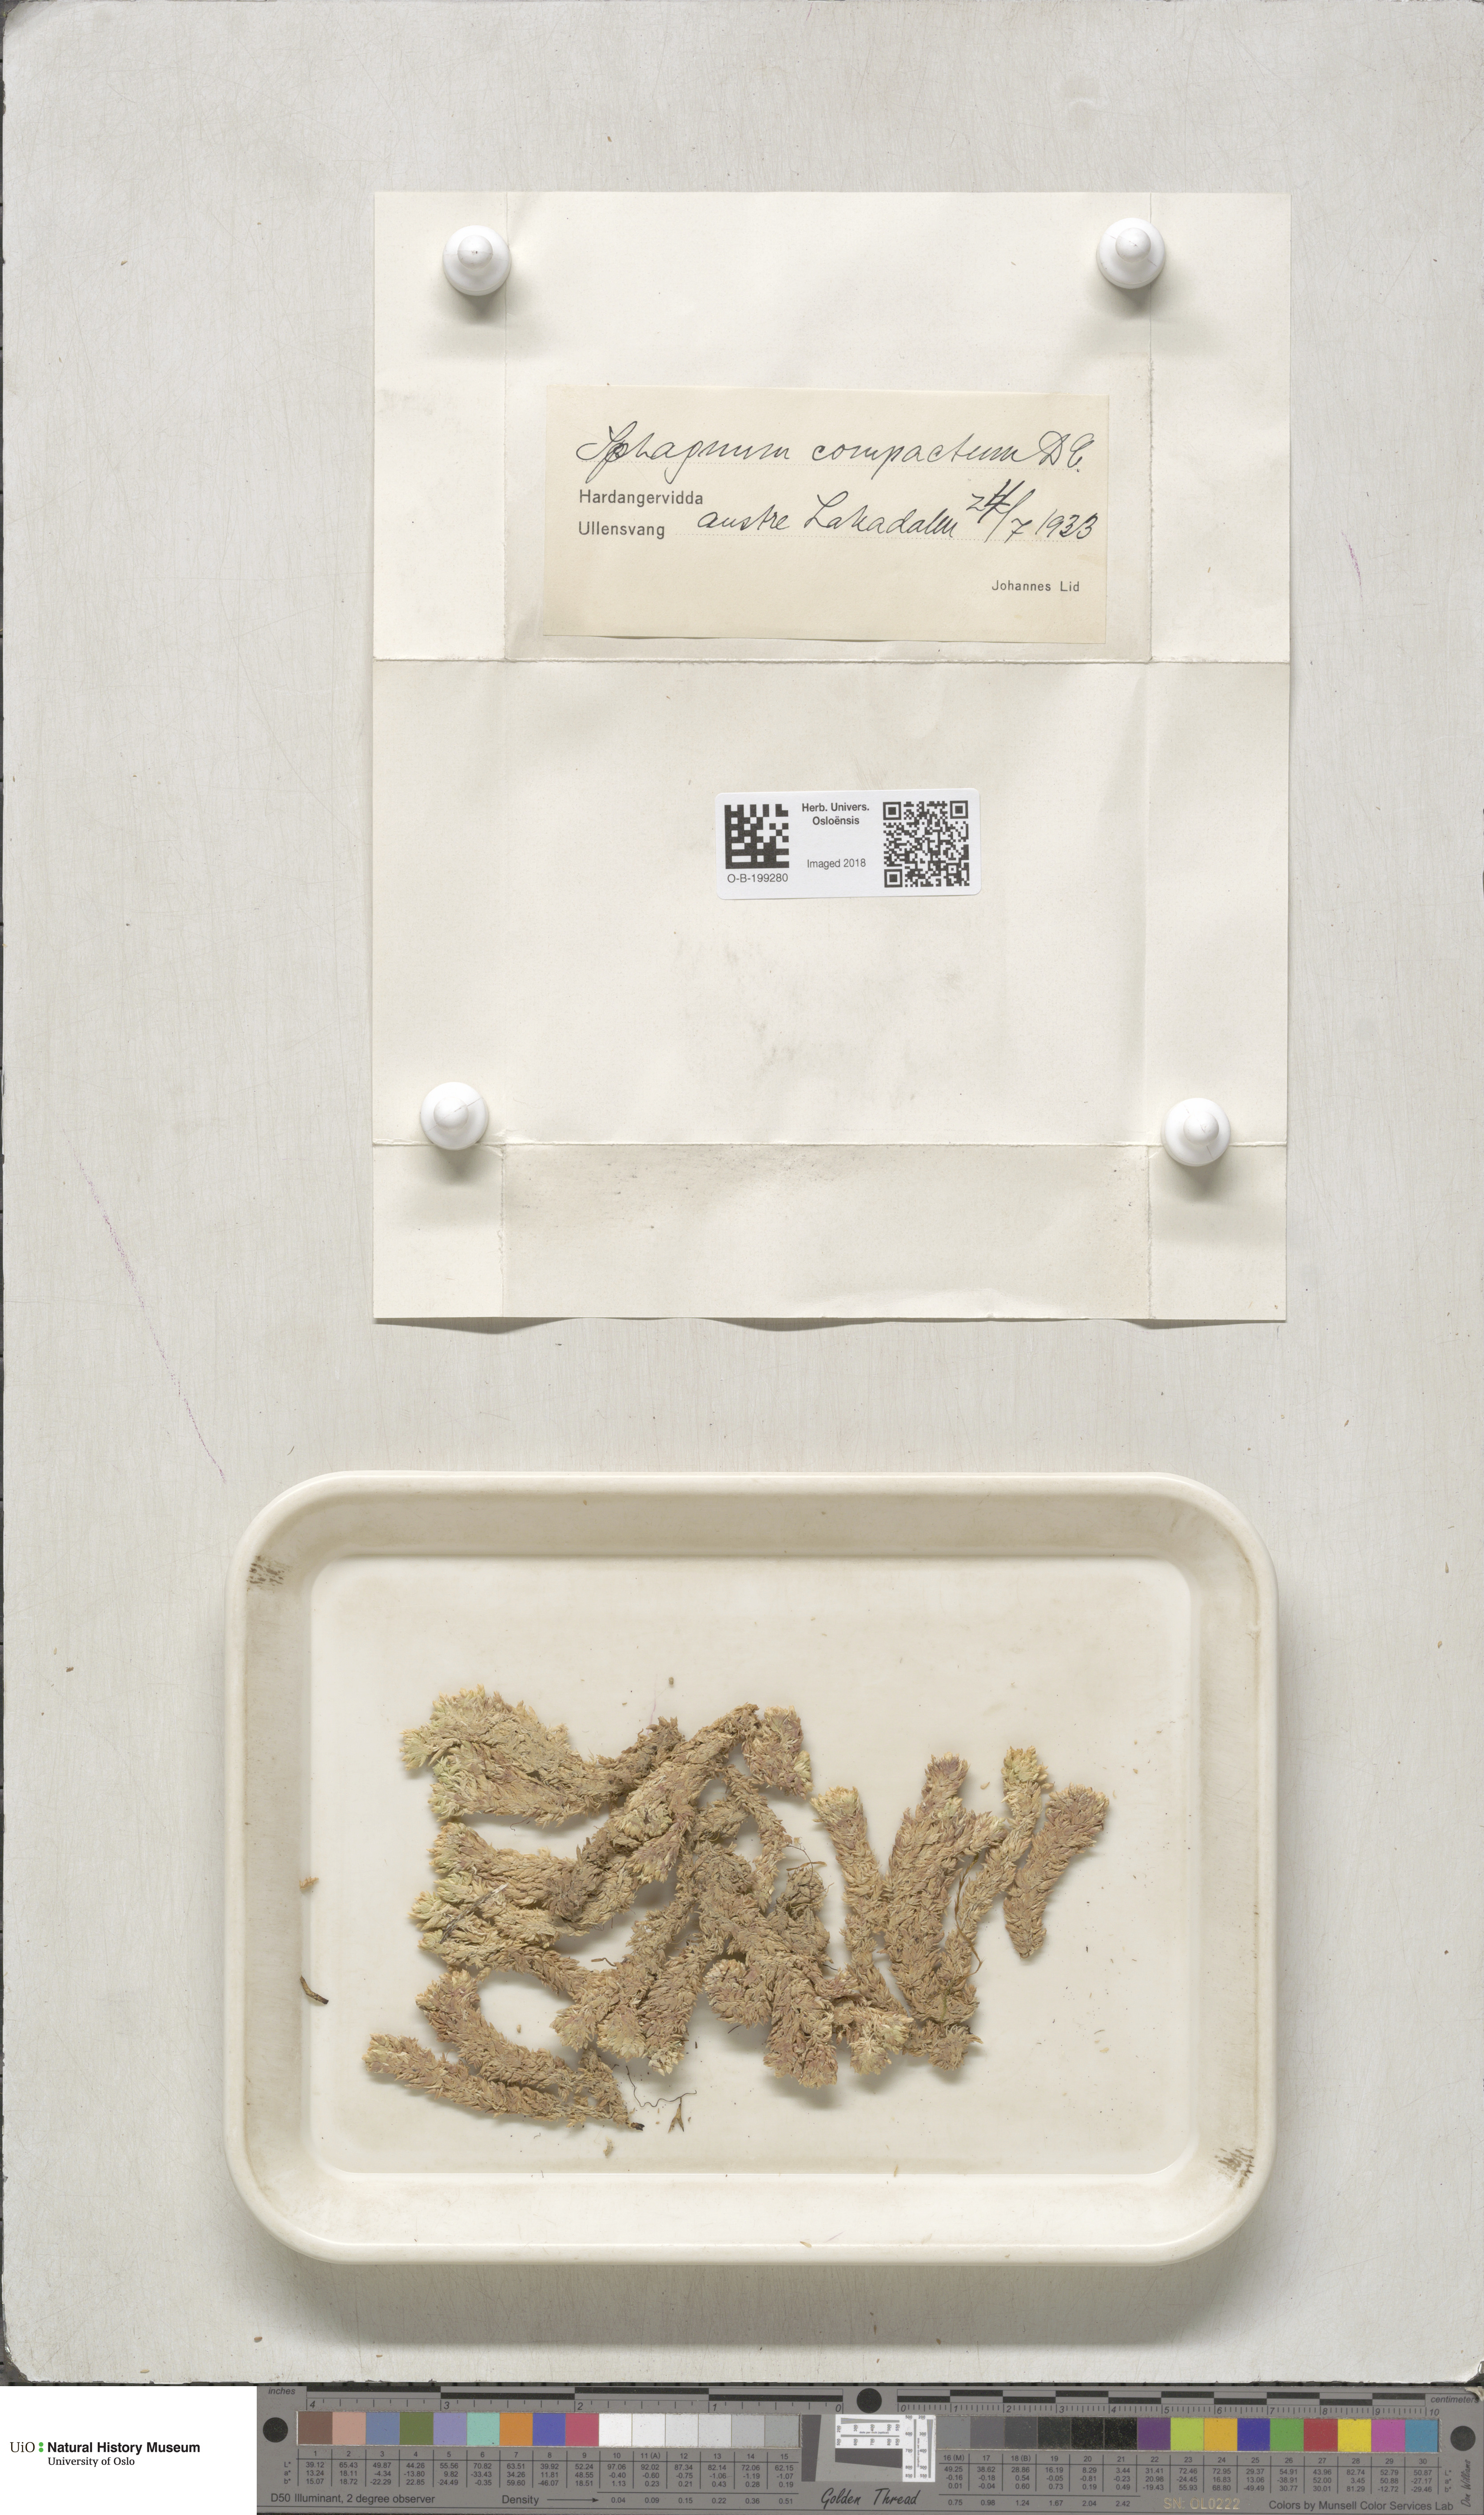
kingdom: Plantae
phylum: Bryophyta
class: Sphagnopsida
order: Sphagnales
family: Sphagnaceae
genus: Sphagnum
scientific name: Sphagnum compactum
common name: Compact peat moss
